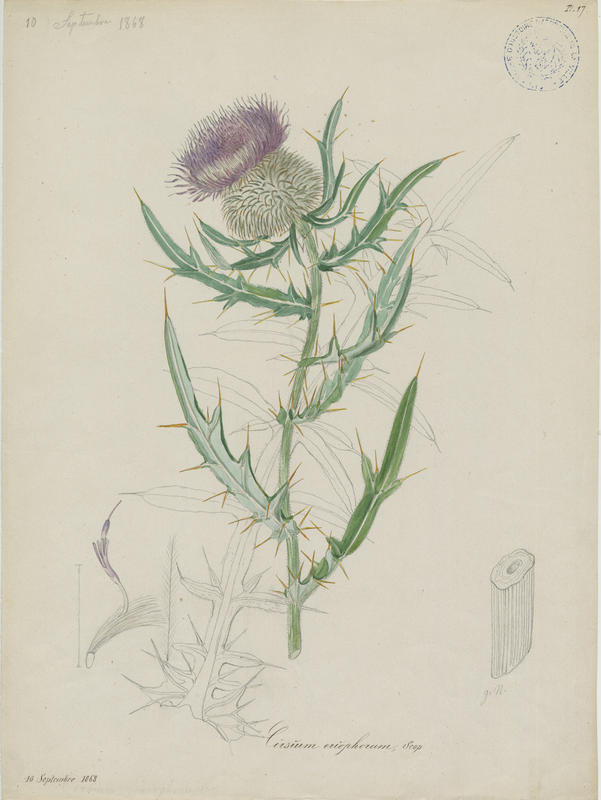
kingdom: Plantae
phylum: Tracheophyta
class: Magnoliopsida
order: Asterales
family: Asteraceae
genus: Lophiolepis
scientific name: Lophiolepis eriophora
